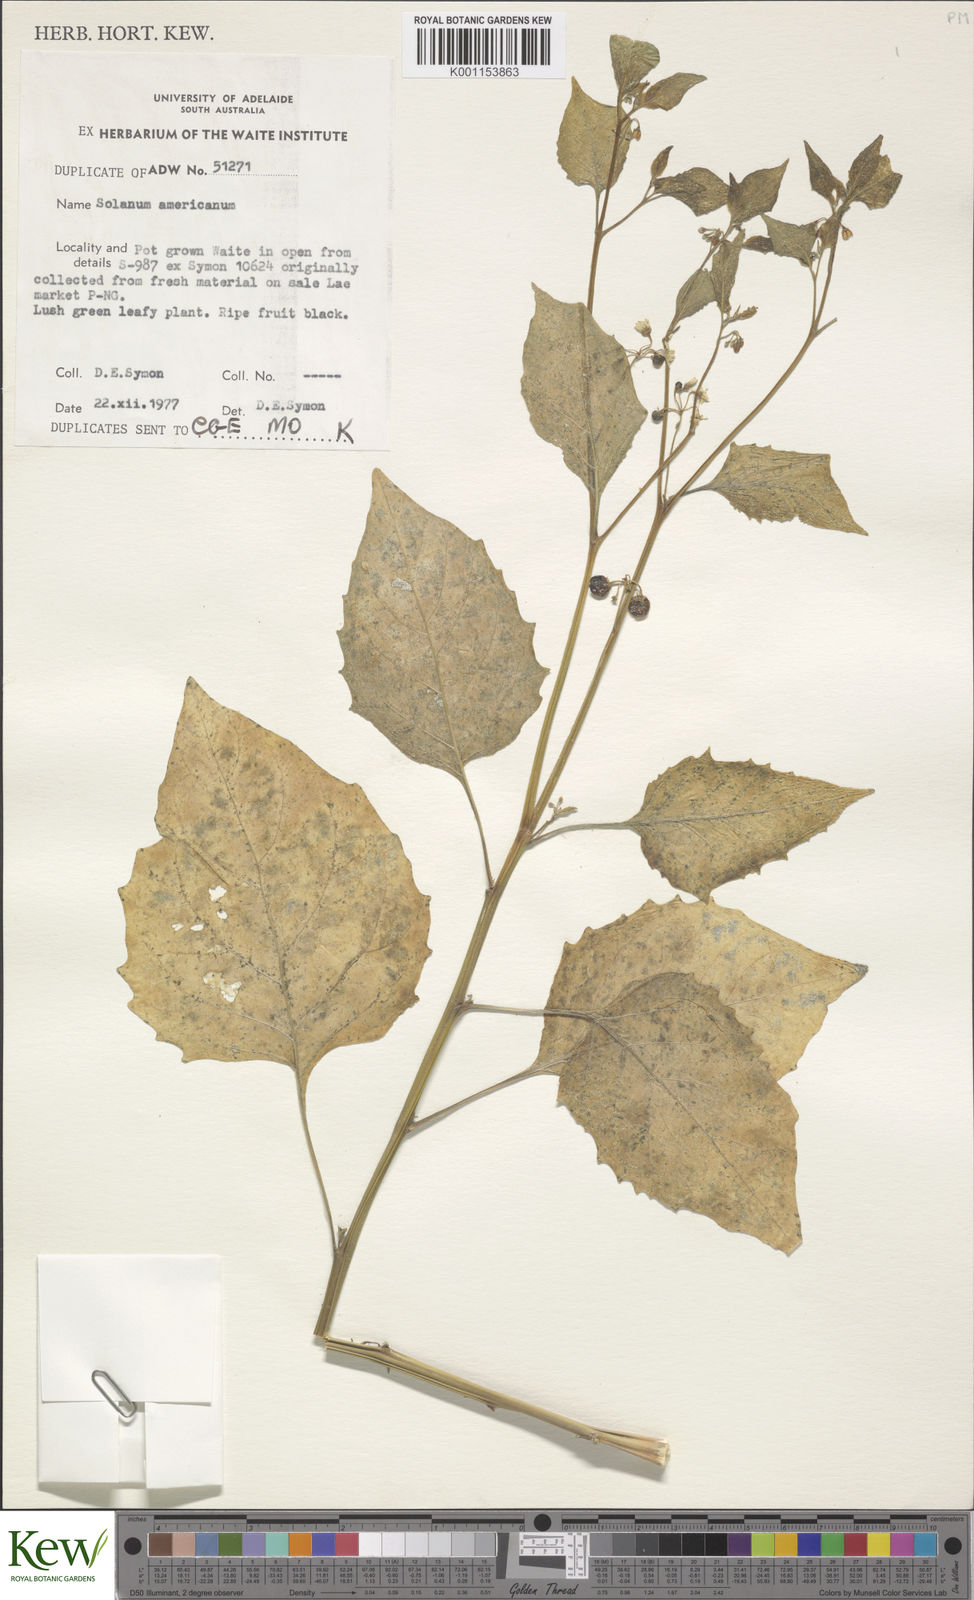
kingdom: Plantae
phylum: Tracheophyta
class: Magnoliopsida
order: Solanales
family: Solanaceae
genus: Solanum
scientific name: Solanum americanum
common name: American black nightshade
